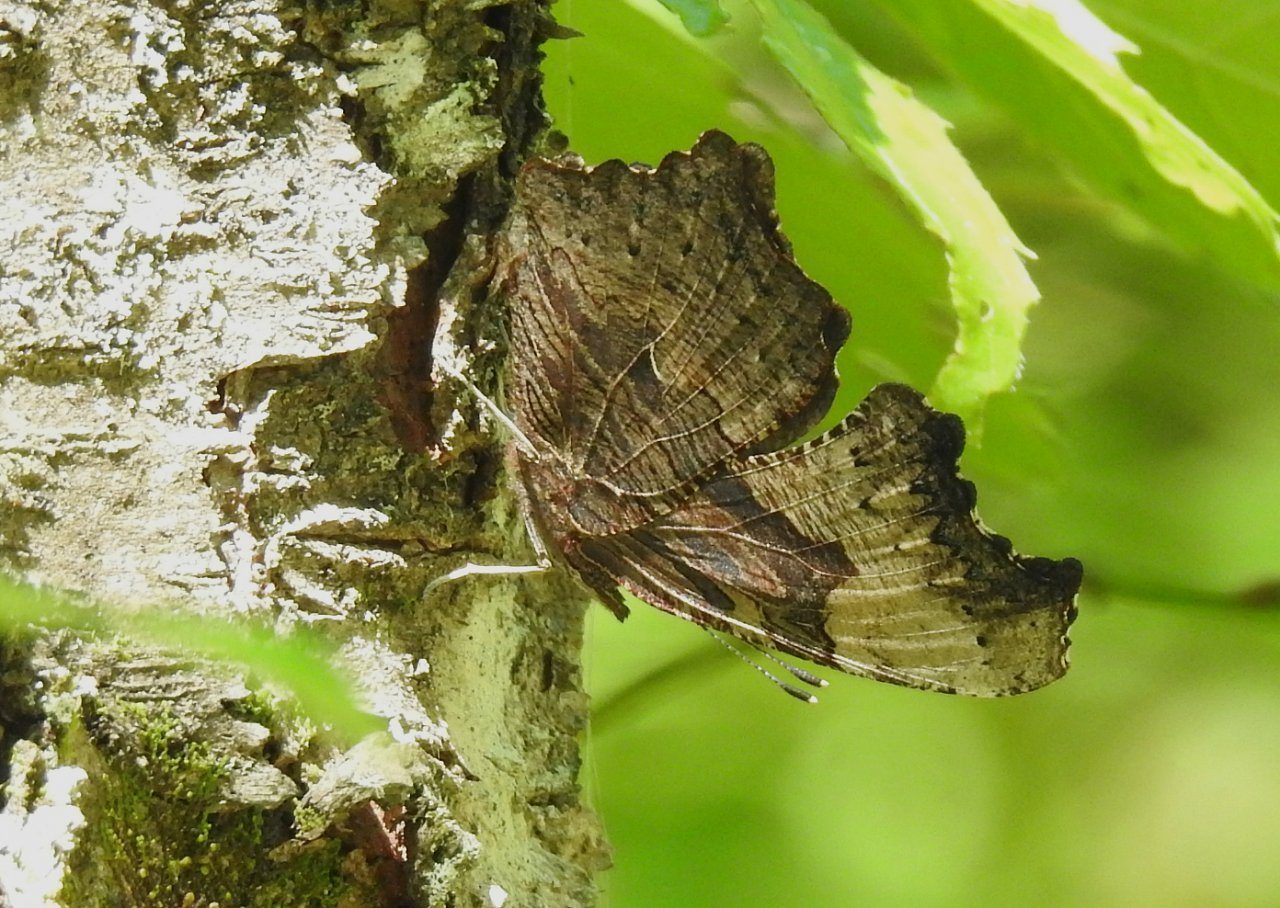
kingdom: Animalia
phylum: Arthropoda
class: Insecta
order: Lepidoptera
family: Nymphalidae
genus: Polygonia
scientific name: Polygonia progne
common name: Gray Comma
